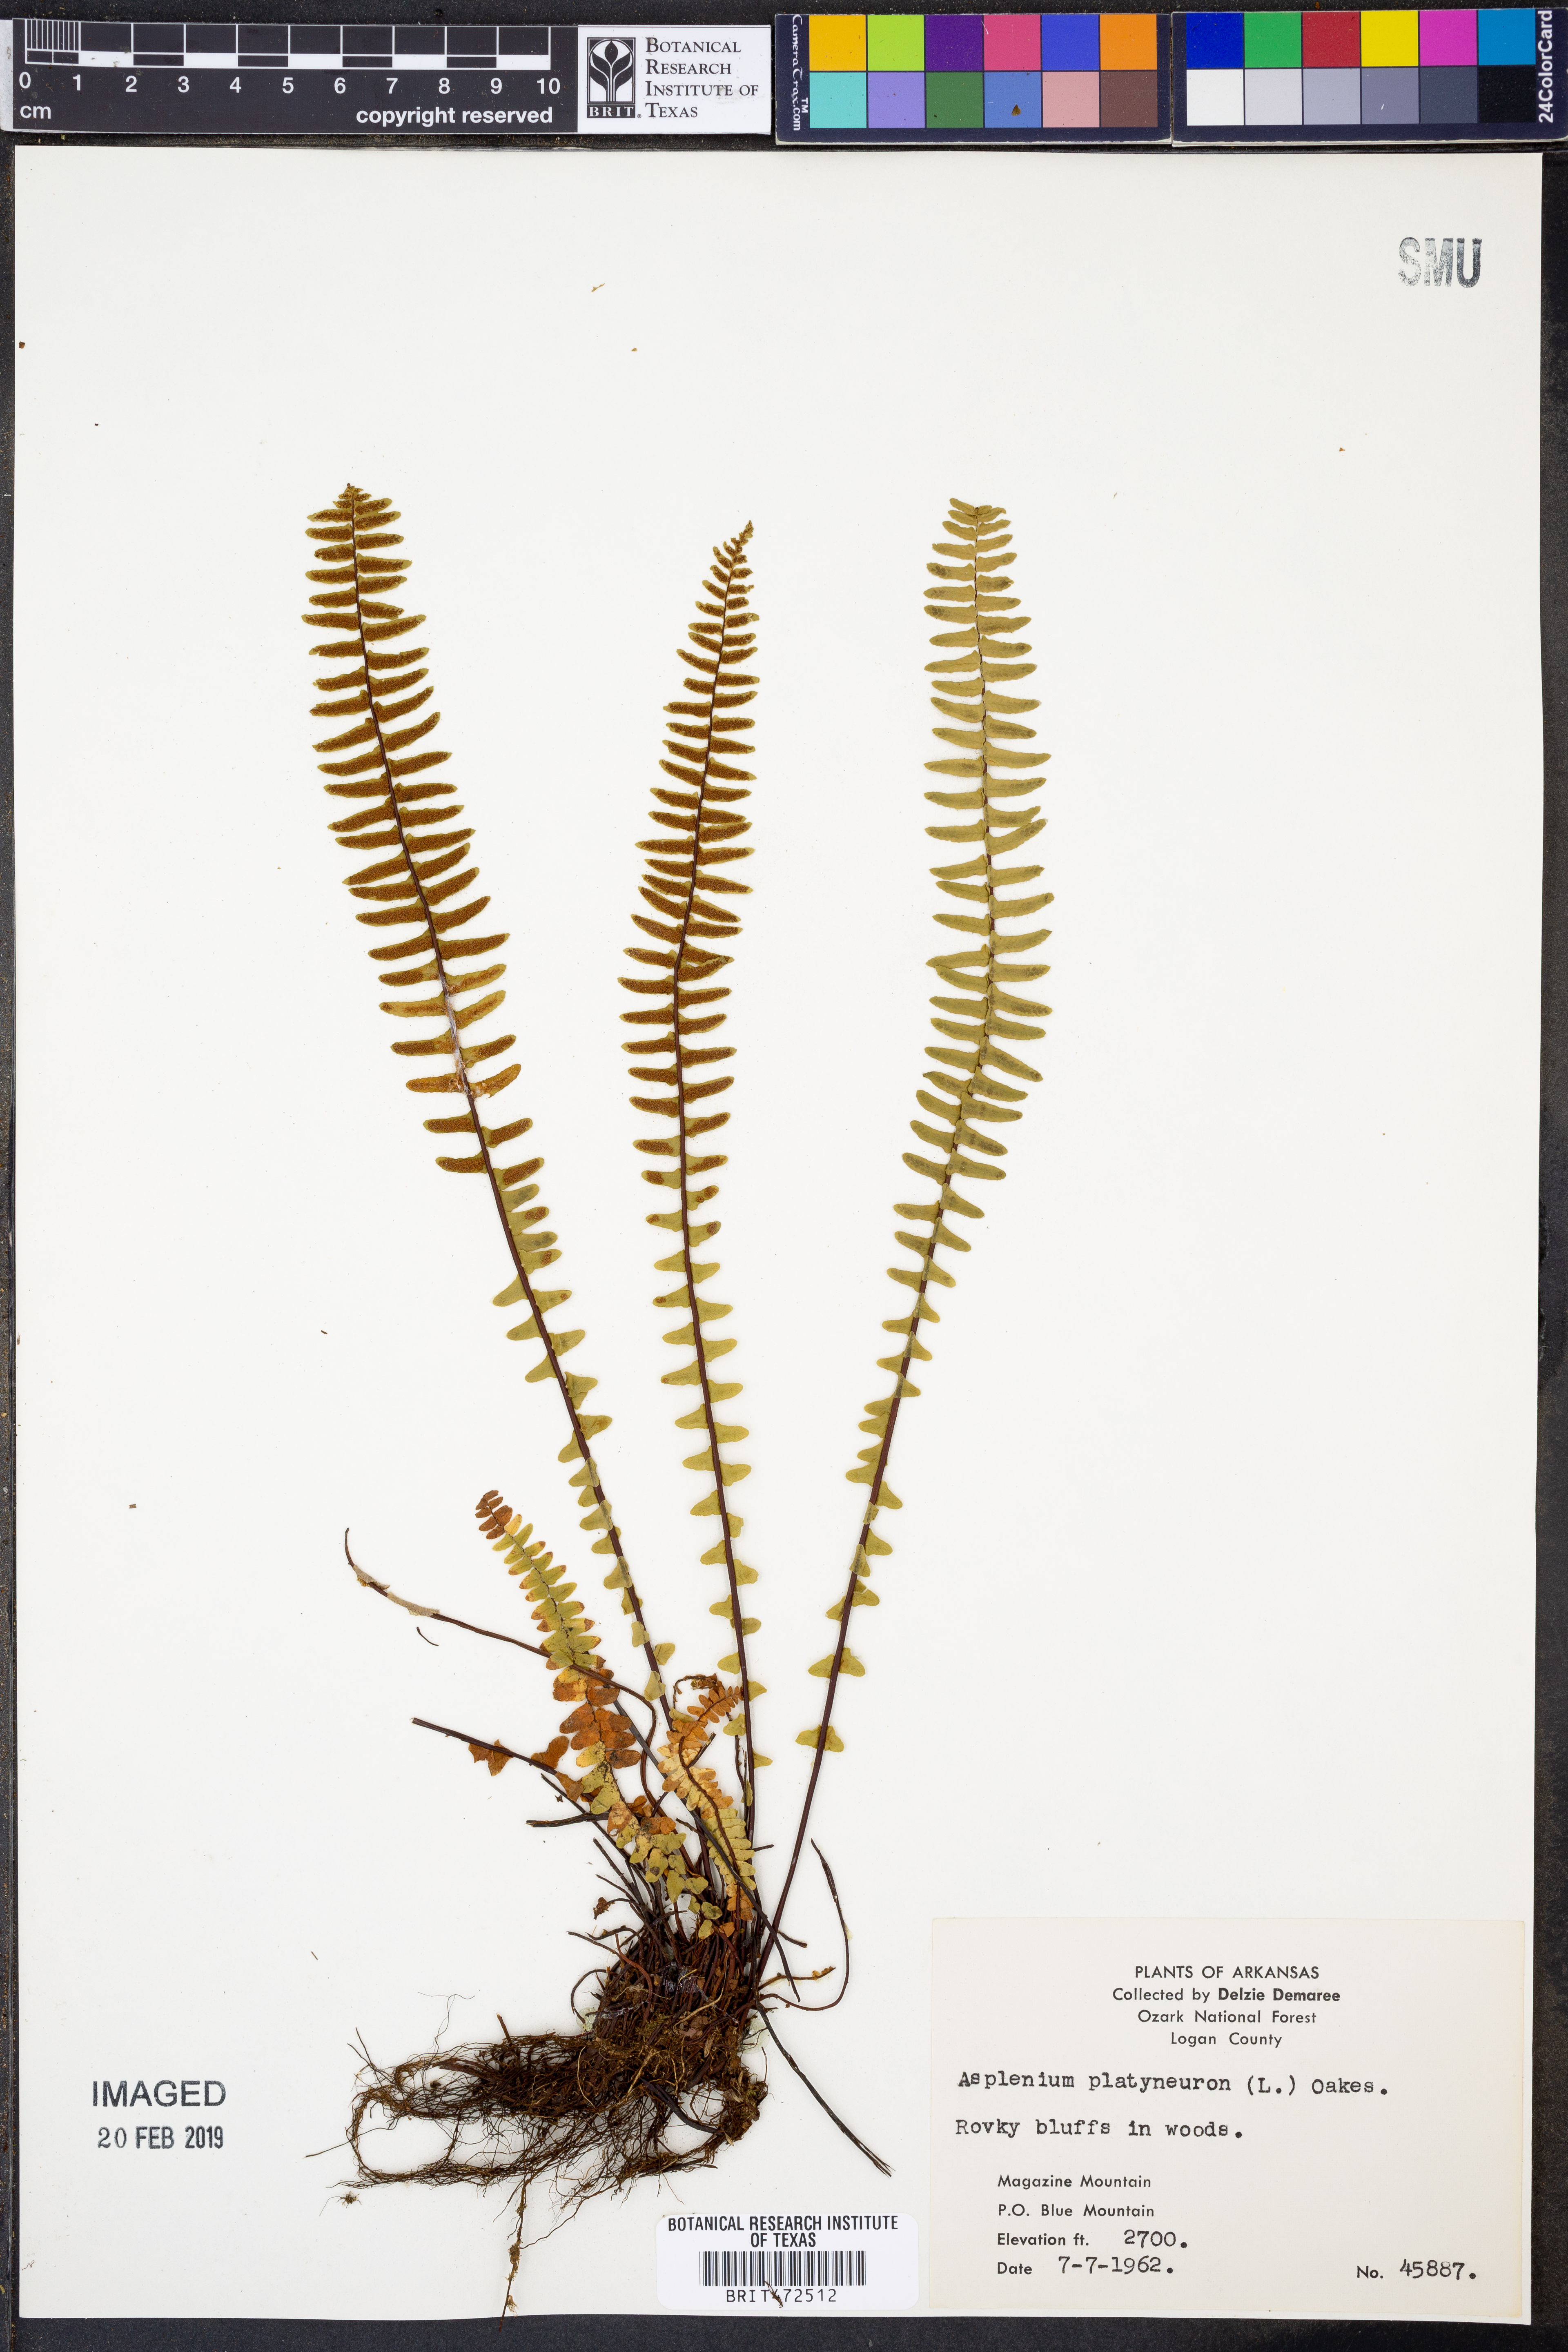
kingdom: Plantae
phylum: Tracheophyta
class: Polypodiopsida
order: Polypodiales
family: Aspleniaceae
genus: Asplenium
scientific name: Asplenium platyneuron
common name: Ebony spleenwort
